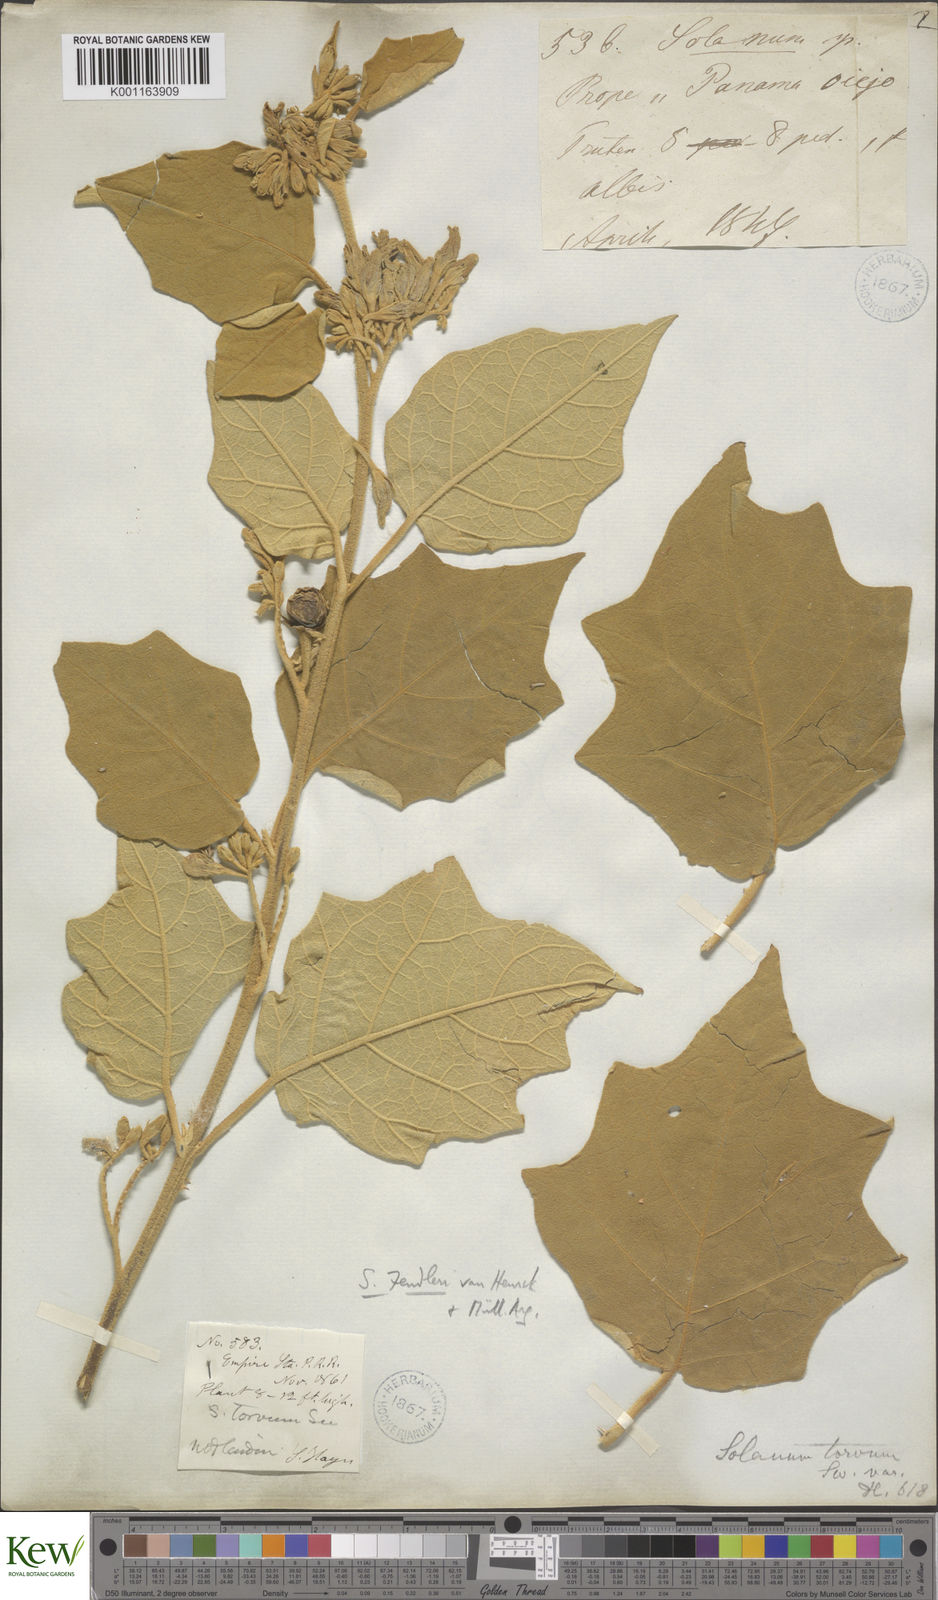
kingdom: Plantae
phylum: Tracheophyta
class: Magnoliopsida
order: Solanales
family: Solanaceae
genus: Solanum
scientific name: Solanum
